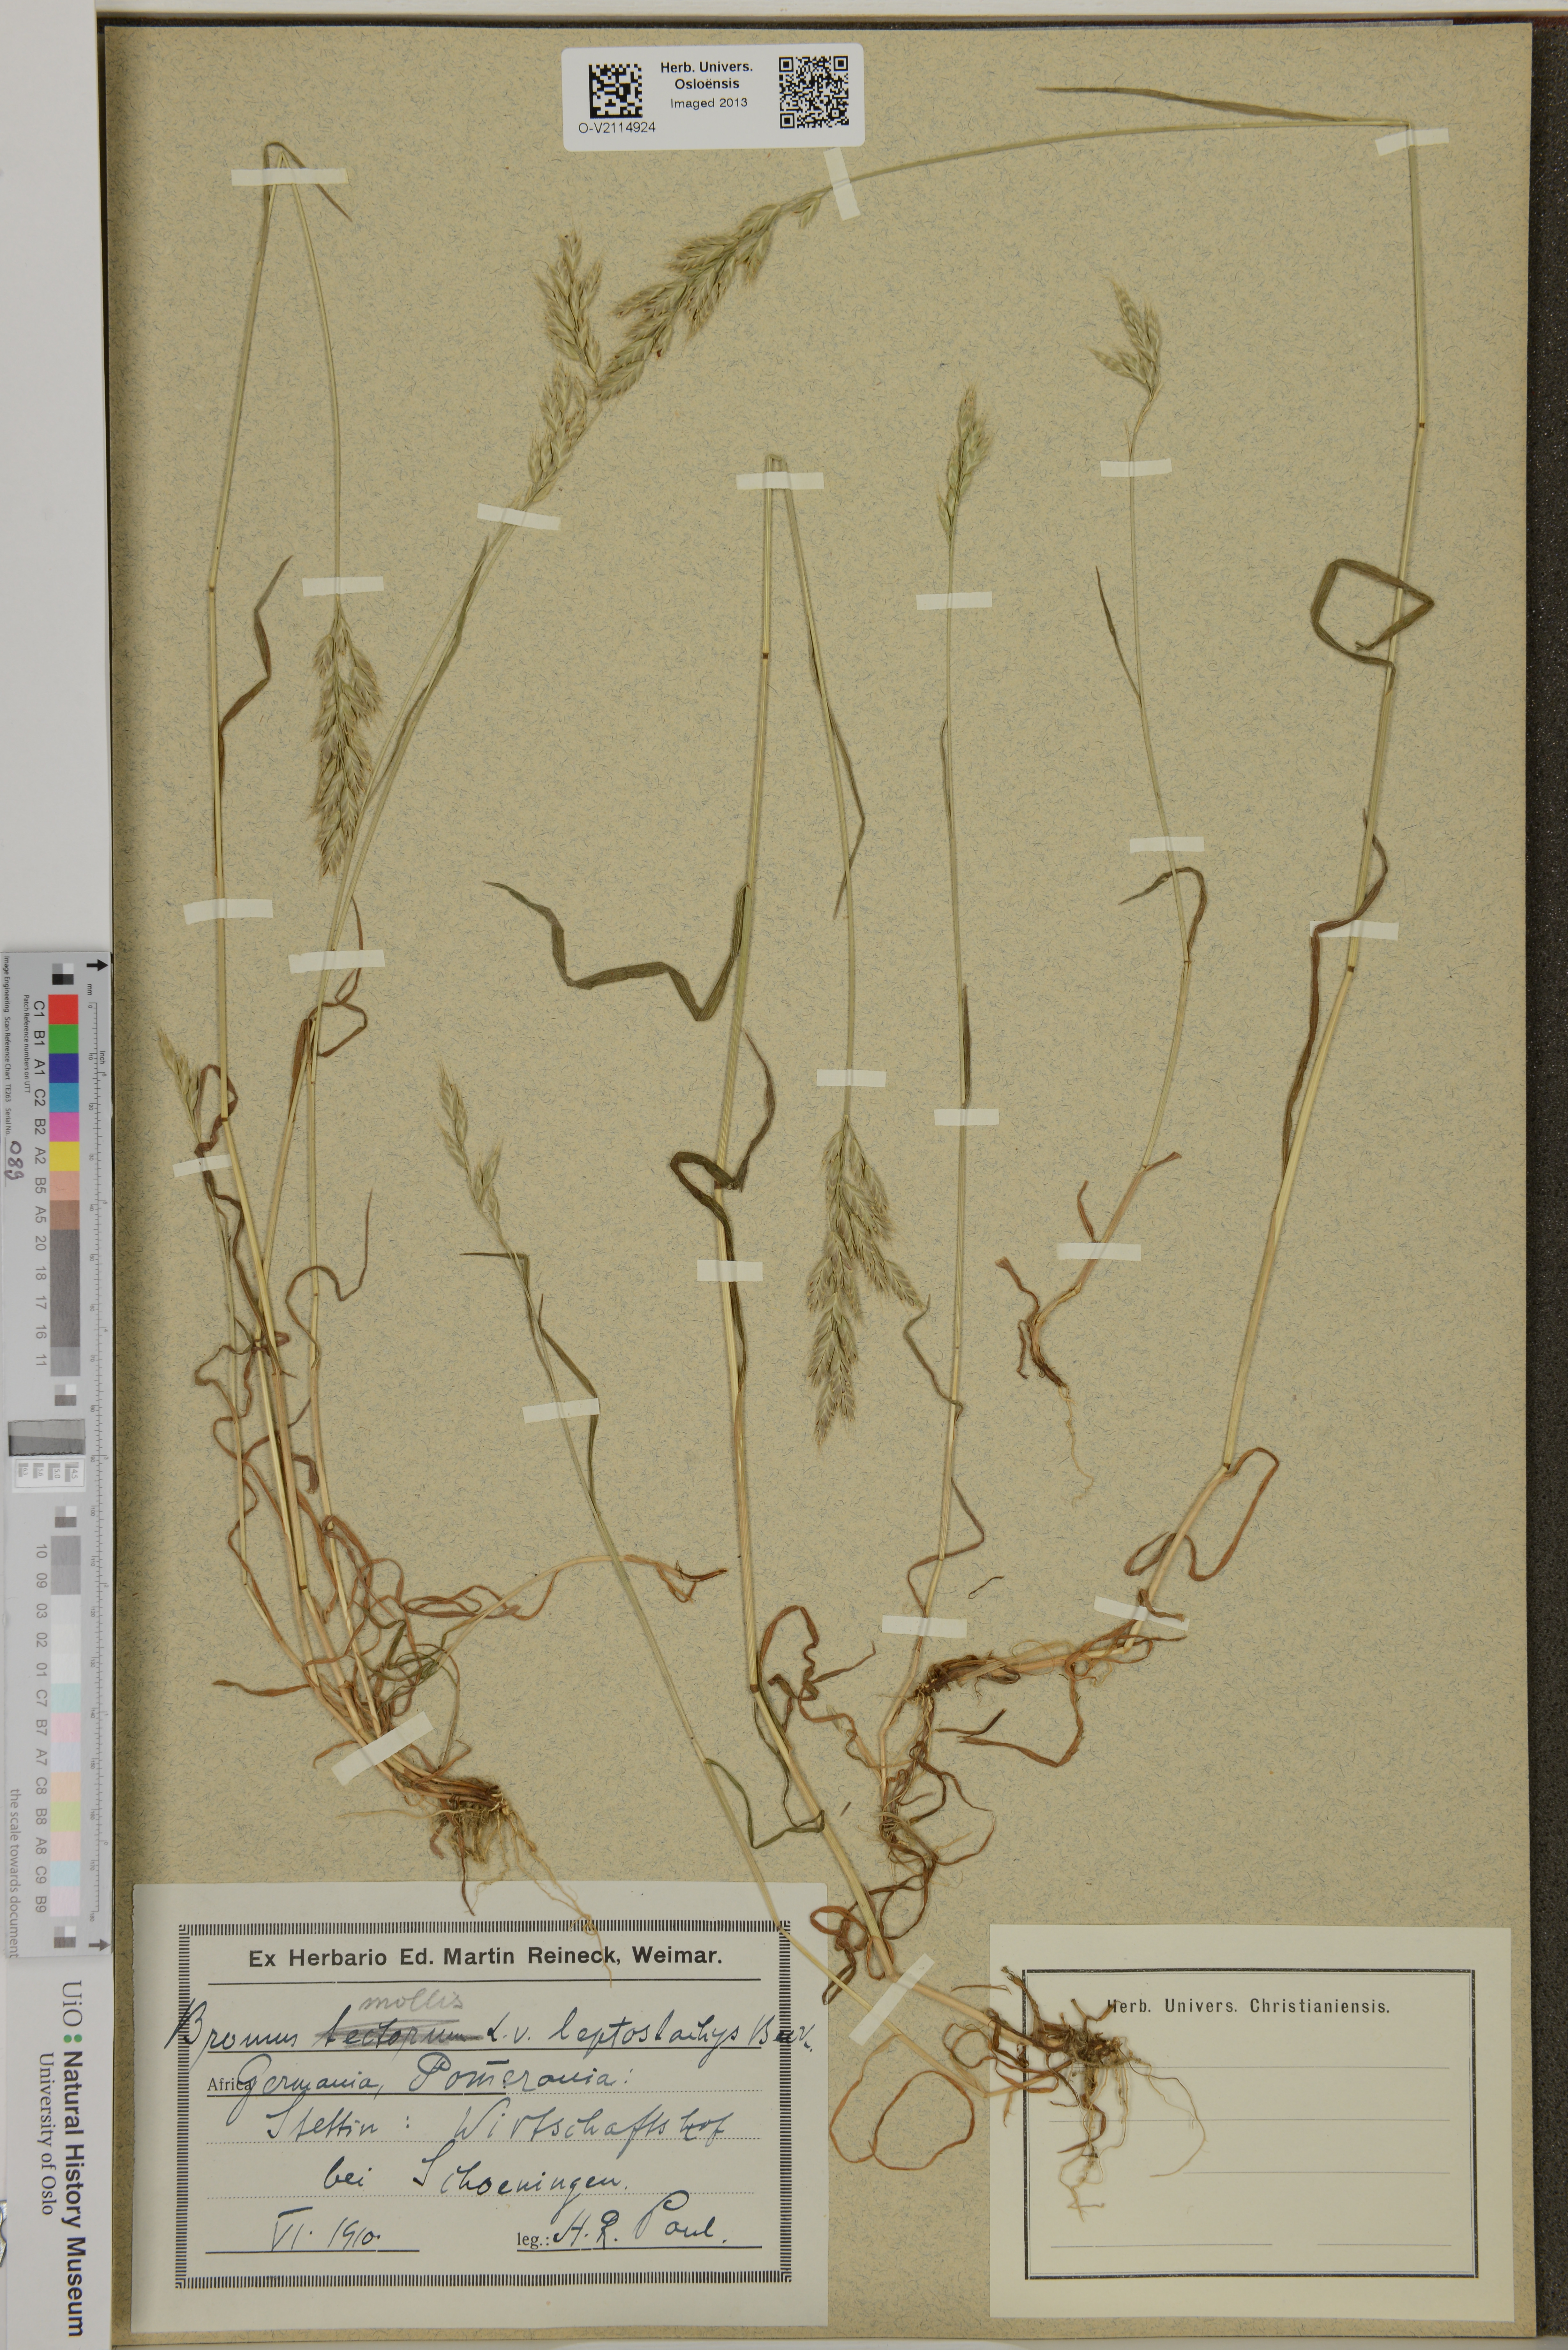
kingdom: Plantae
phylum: Tracheophyta
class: Liliopsida
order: Poales
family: Poaceae
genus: Bromus
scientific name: Bromus hordeaceus
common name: Soft brome
